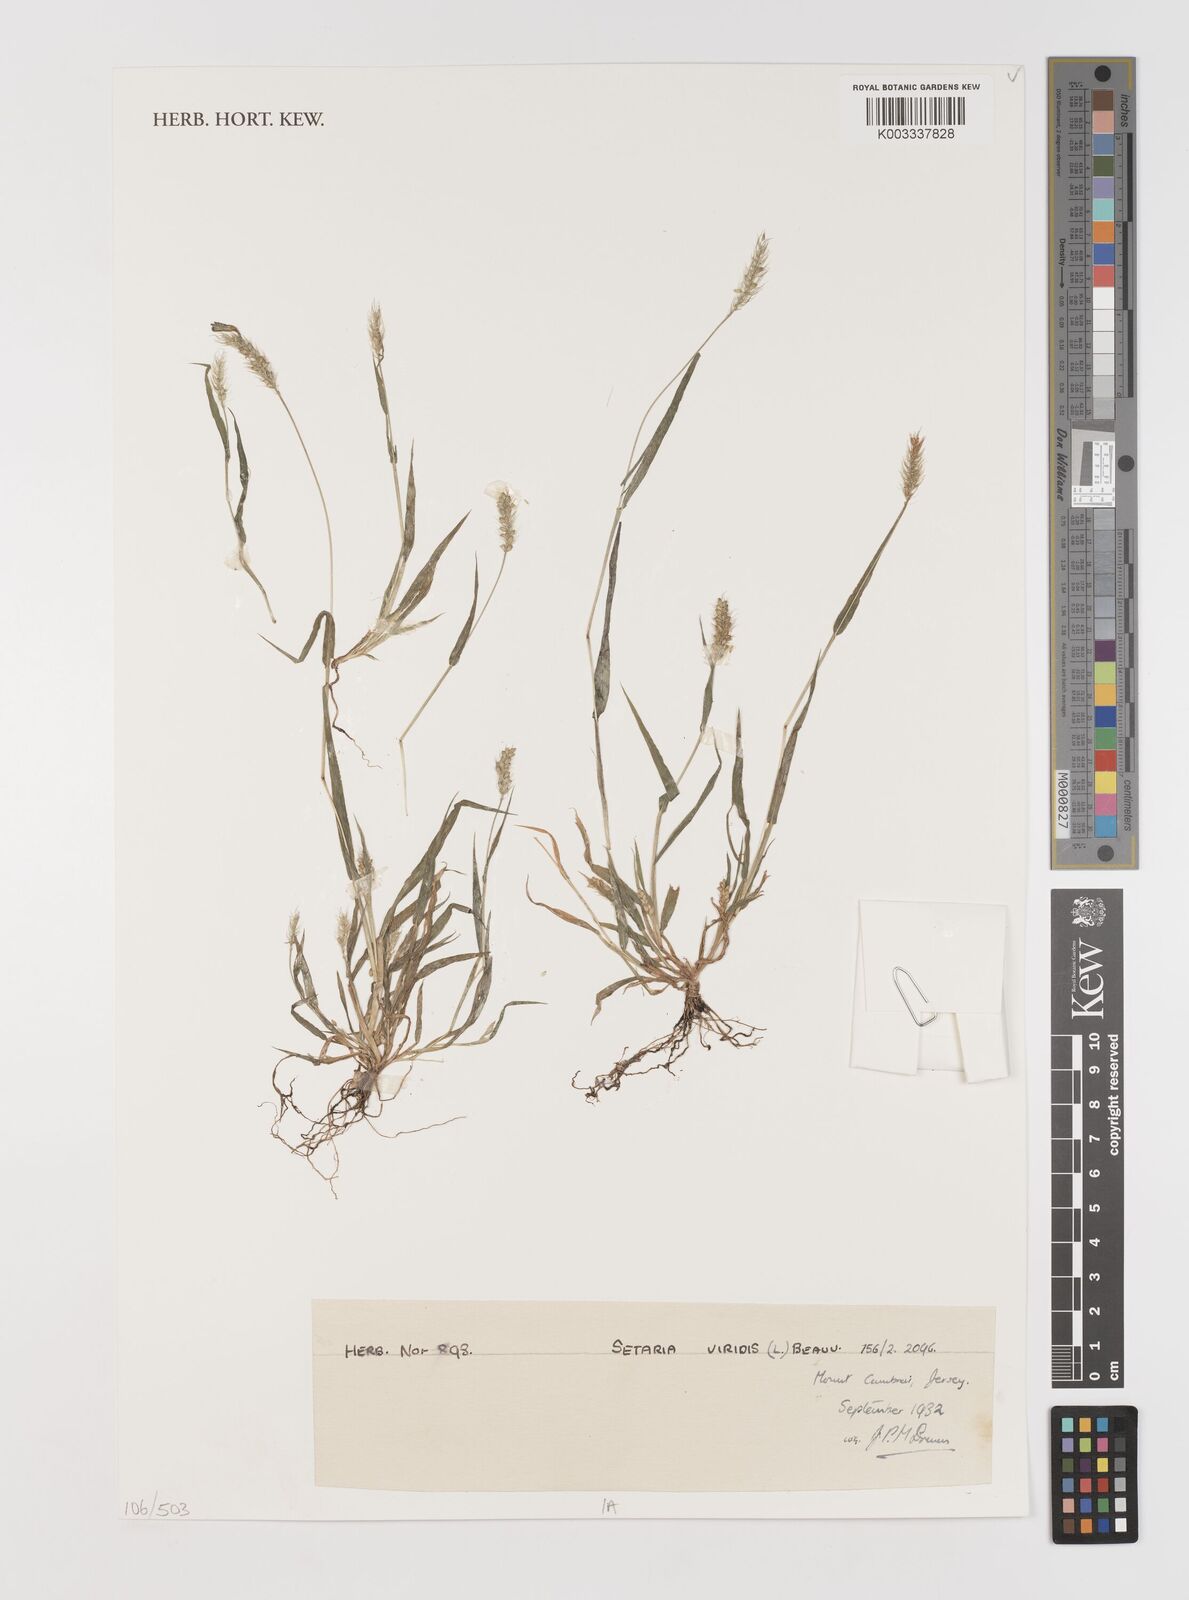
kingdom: Plantae
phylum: Tracheophyta
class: Liliopsida
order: Poales
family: Poaceae
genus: Setaria
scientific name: Setaria viridis
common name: Green bristlegrass
